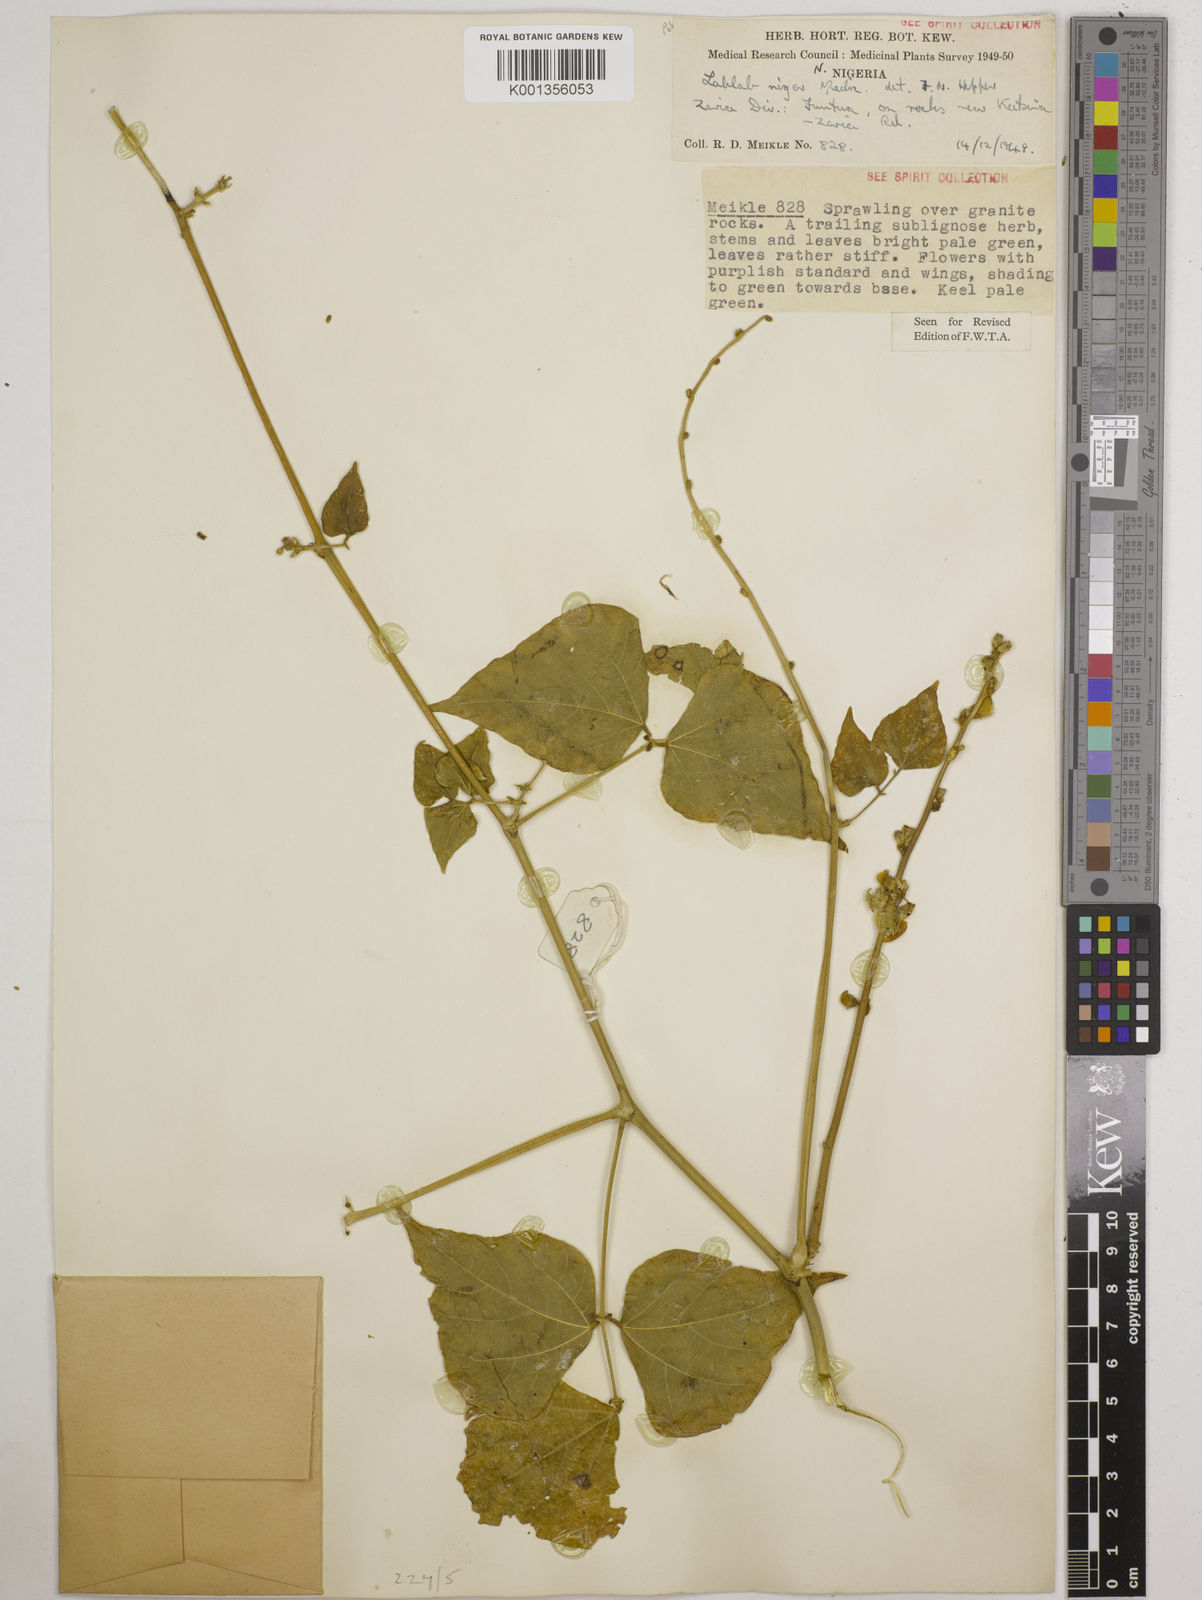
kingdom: Plantae
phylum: Tracheophyta
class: Magnoliopsida
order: Fabales
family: Fabaceae
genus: Lablab
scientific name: Lablab purpureus
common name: Lablab-bean
